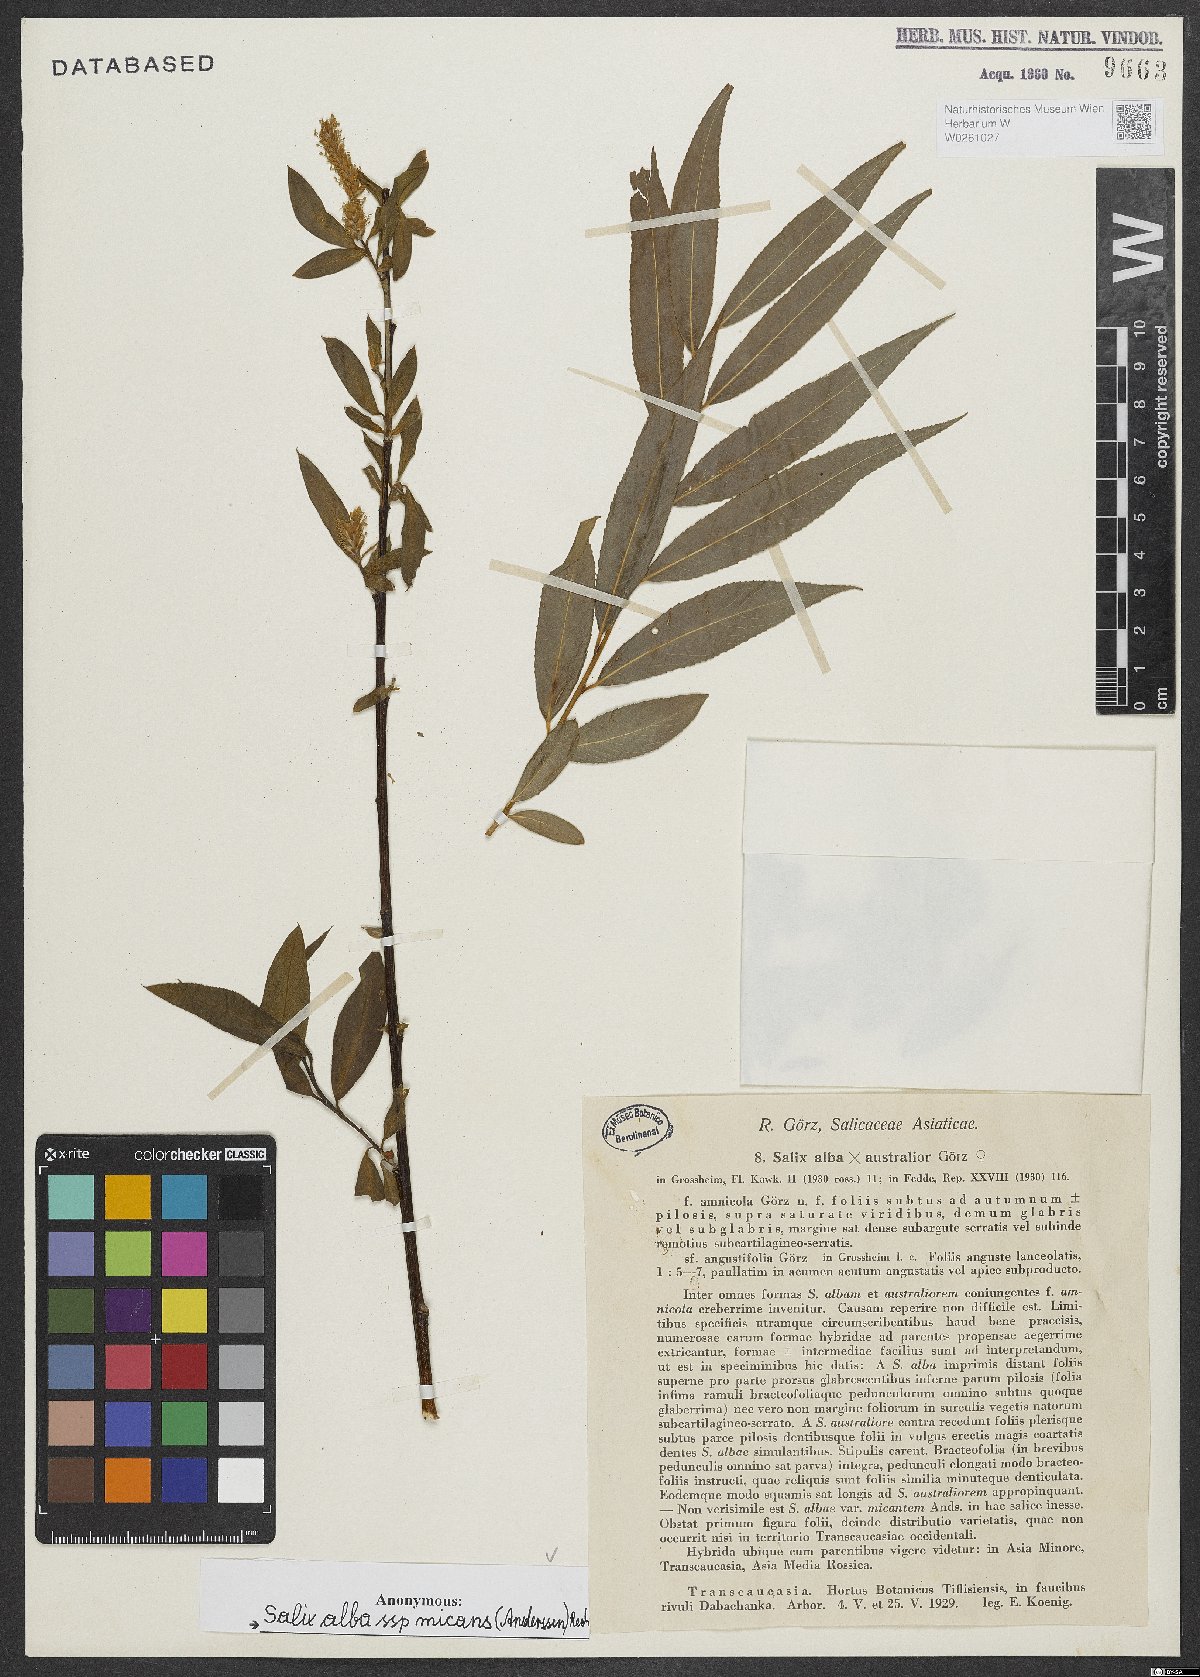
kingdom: Plantae
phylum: Tracheophyta
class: Magnoliopsida
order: Malpighiales
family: Salicaceae
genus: Salix
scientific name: Salix alba
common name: White willow
